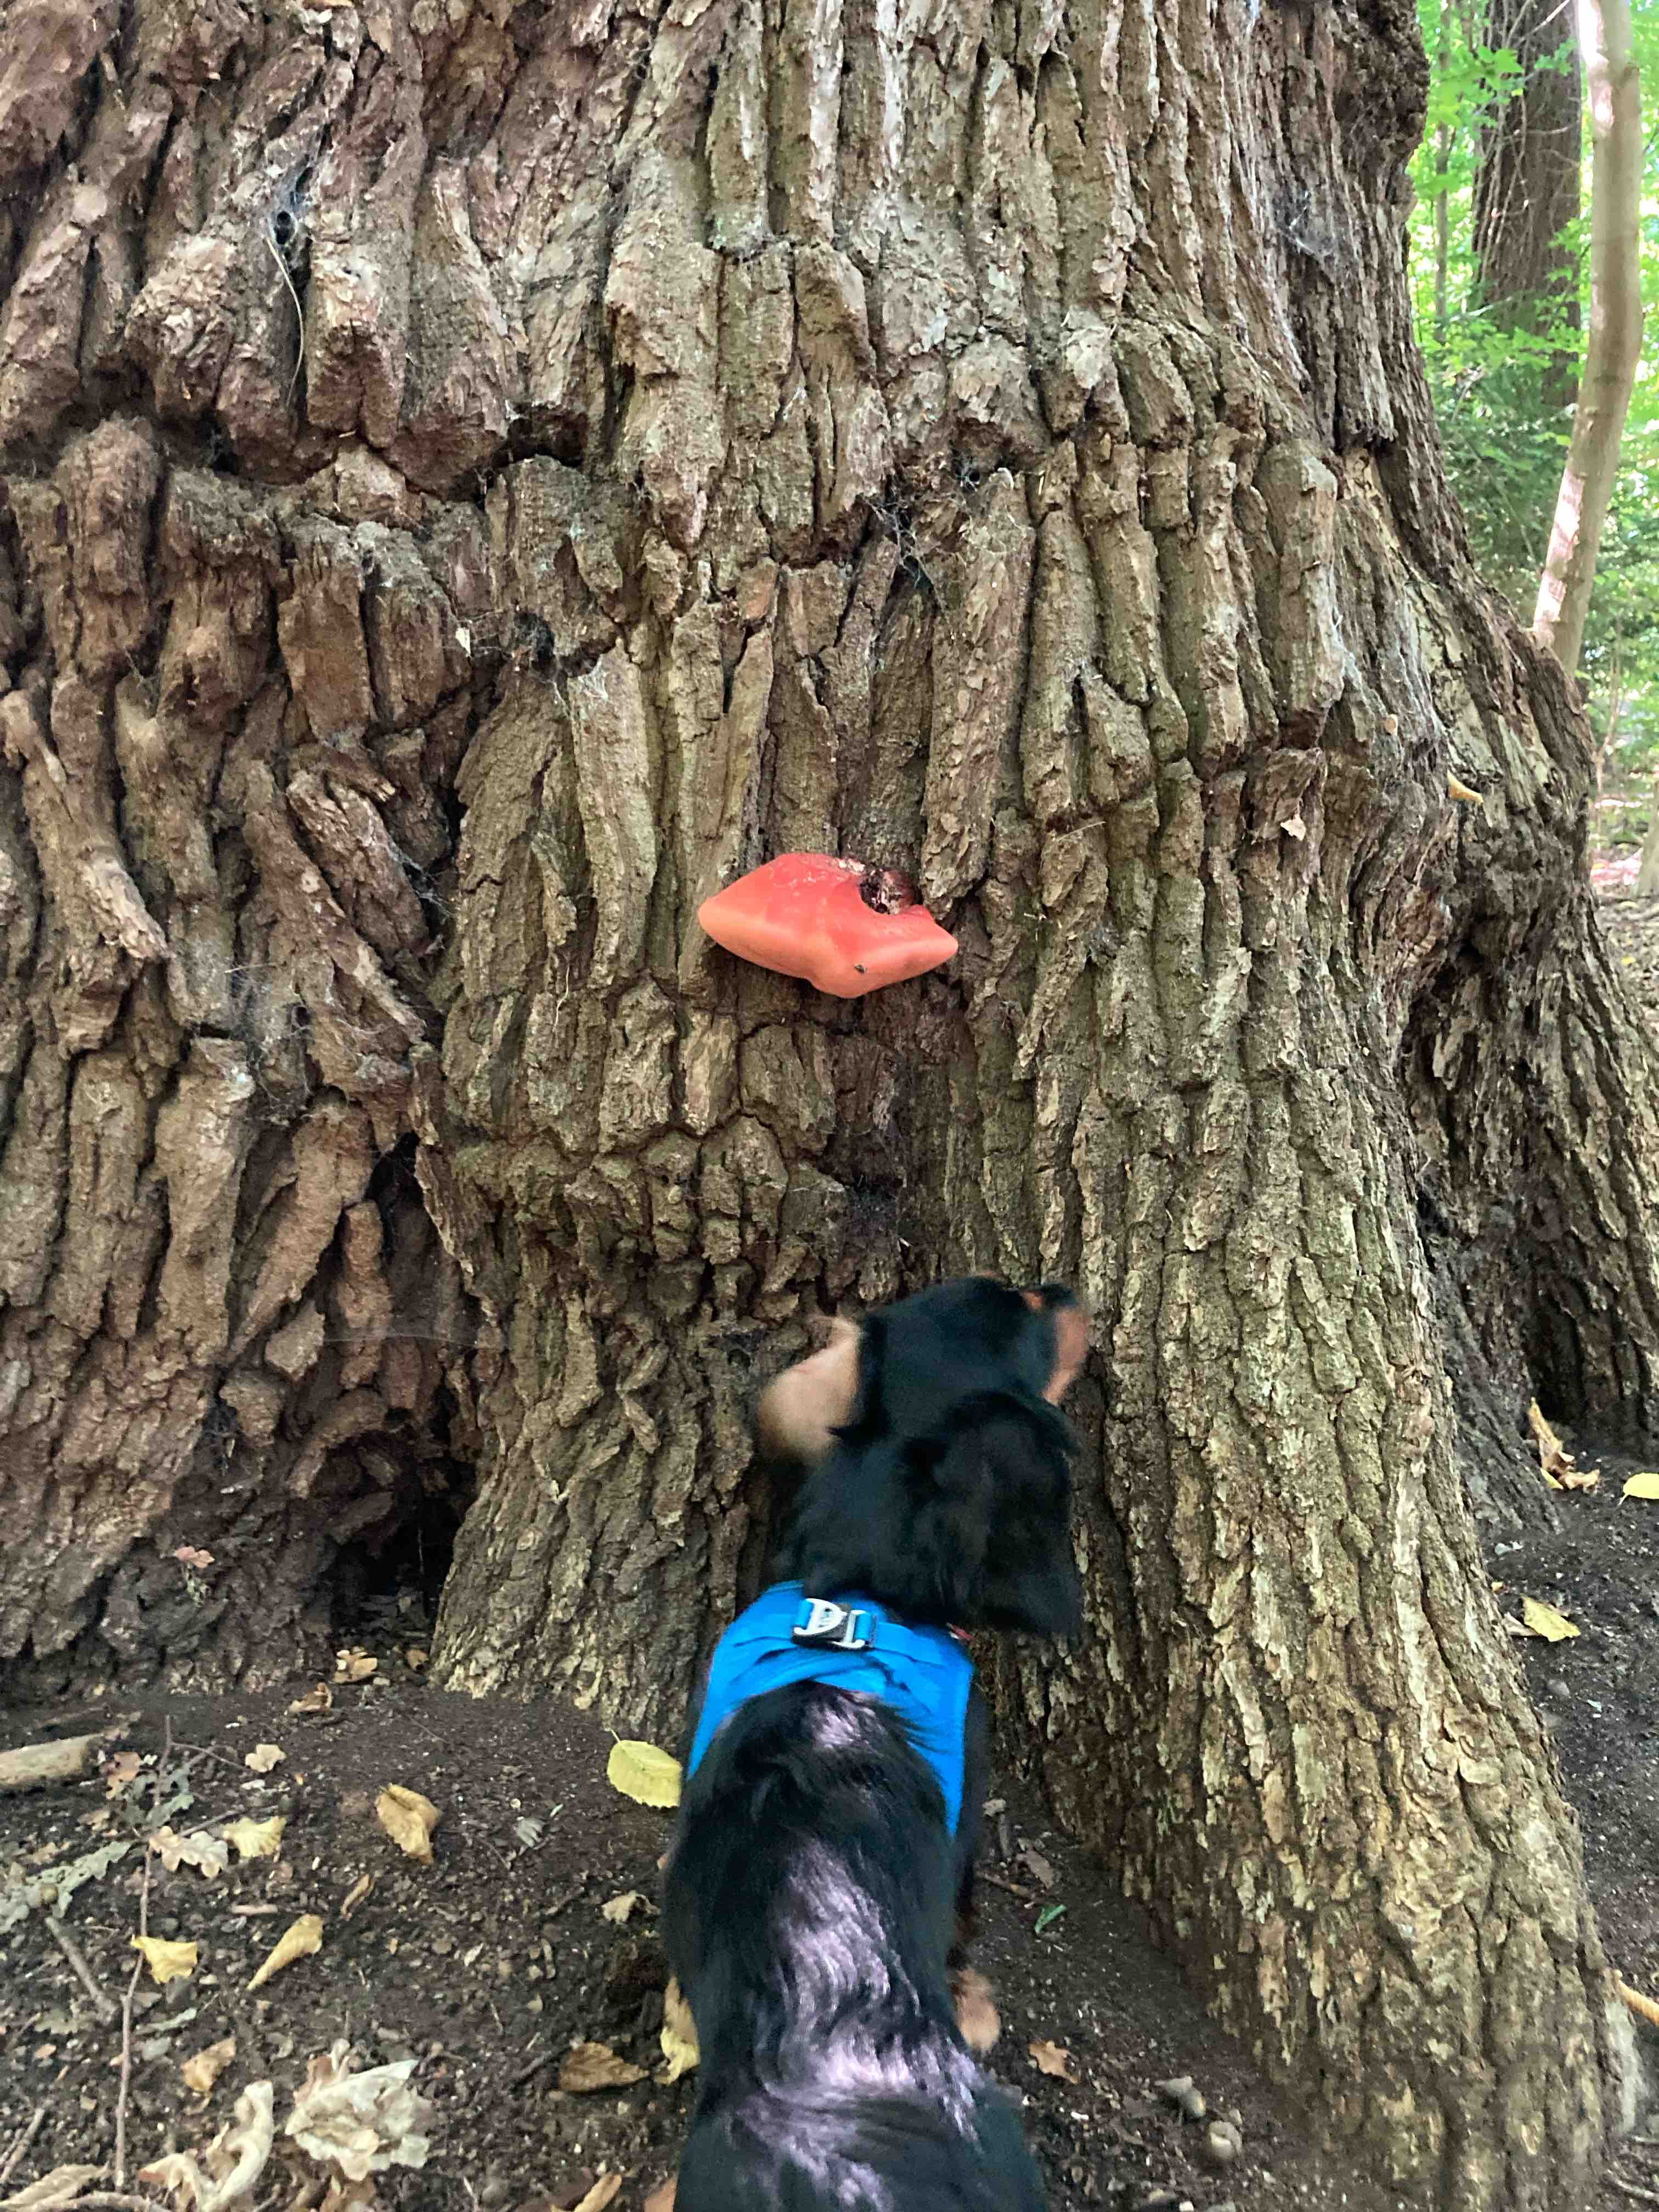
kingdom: Fungi
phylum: Basidiomycota
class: Agaricomycetes
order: Agaricales
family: Fistulinaceae
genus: Fistulina
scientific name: Fistulina
